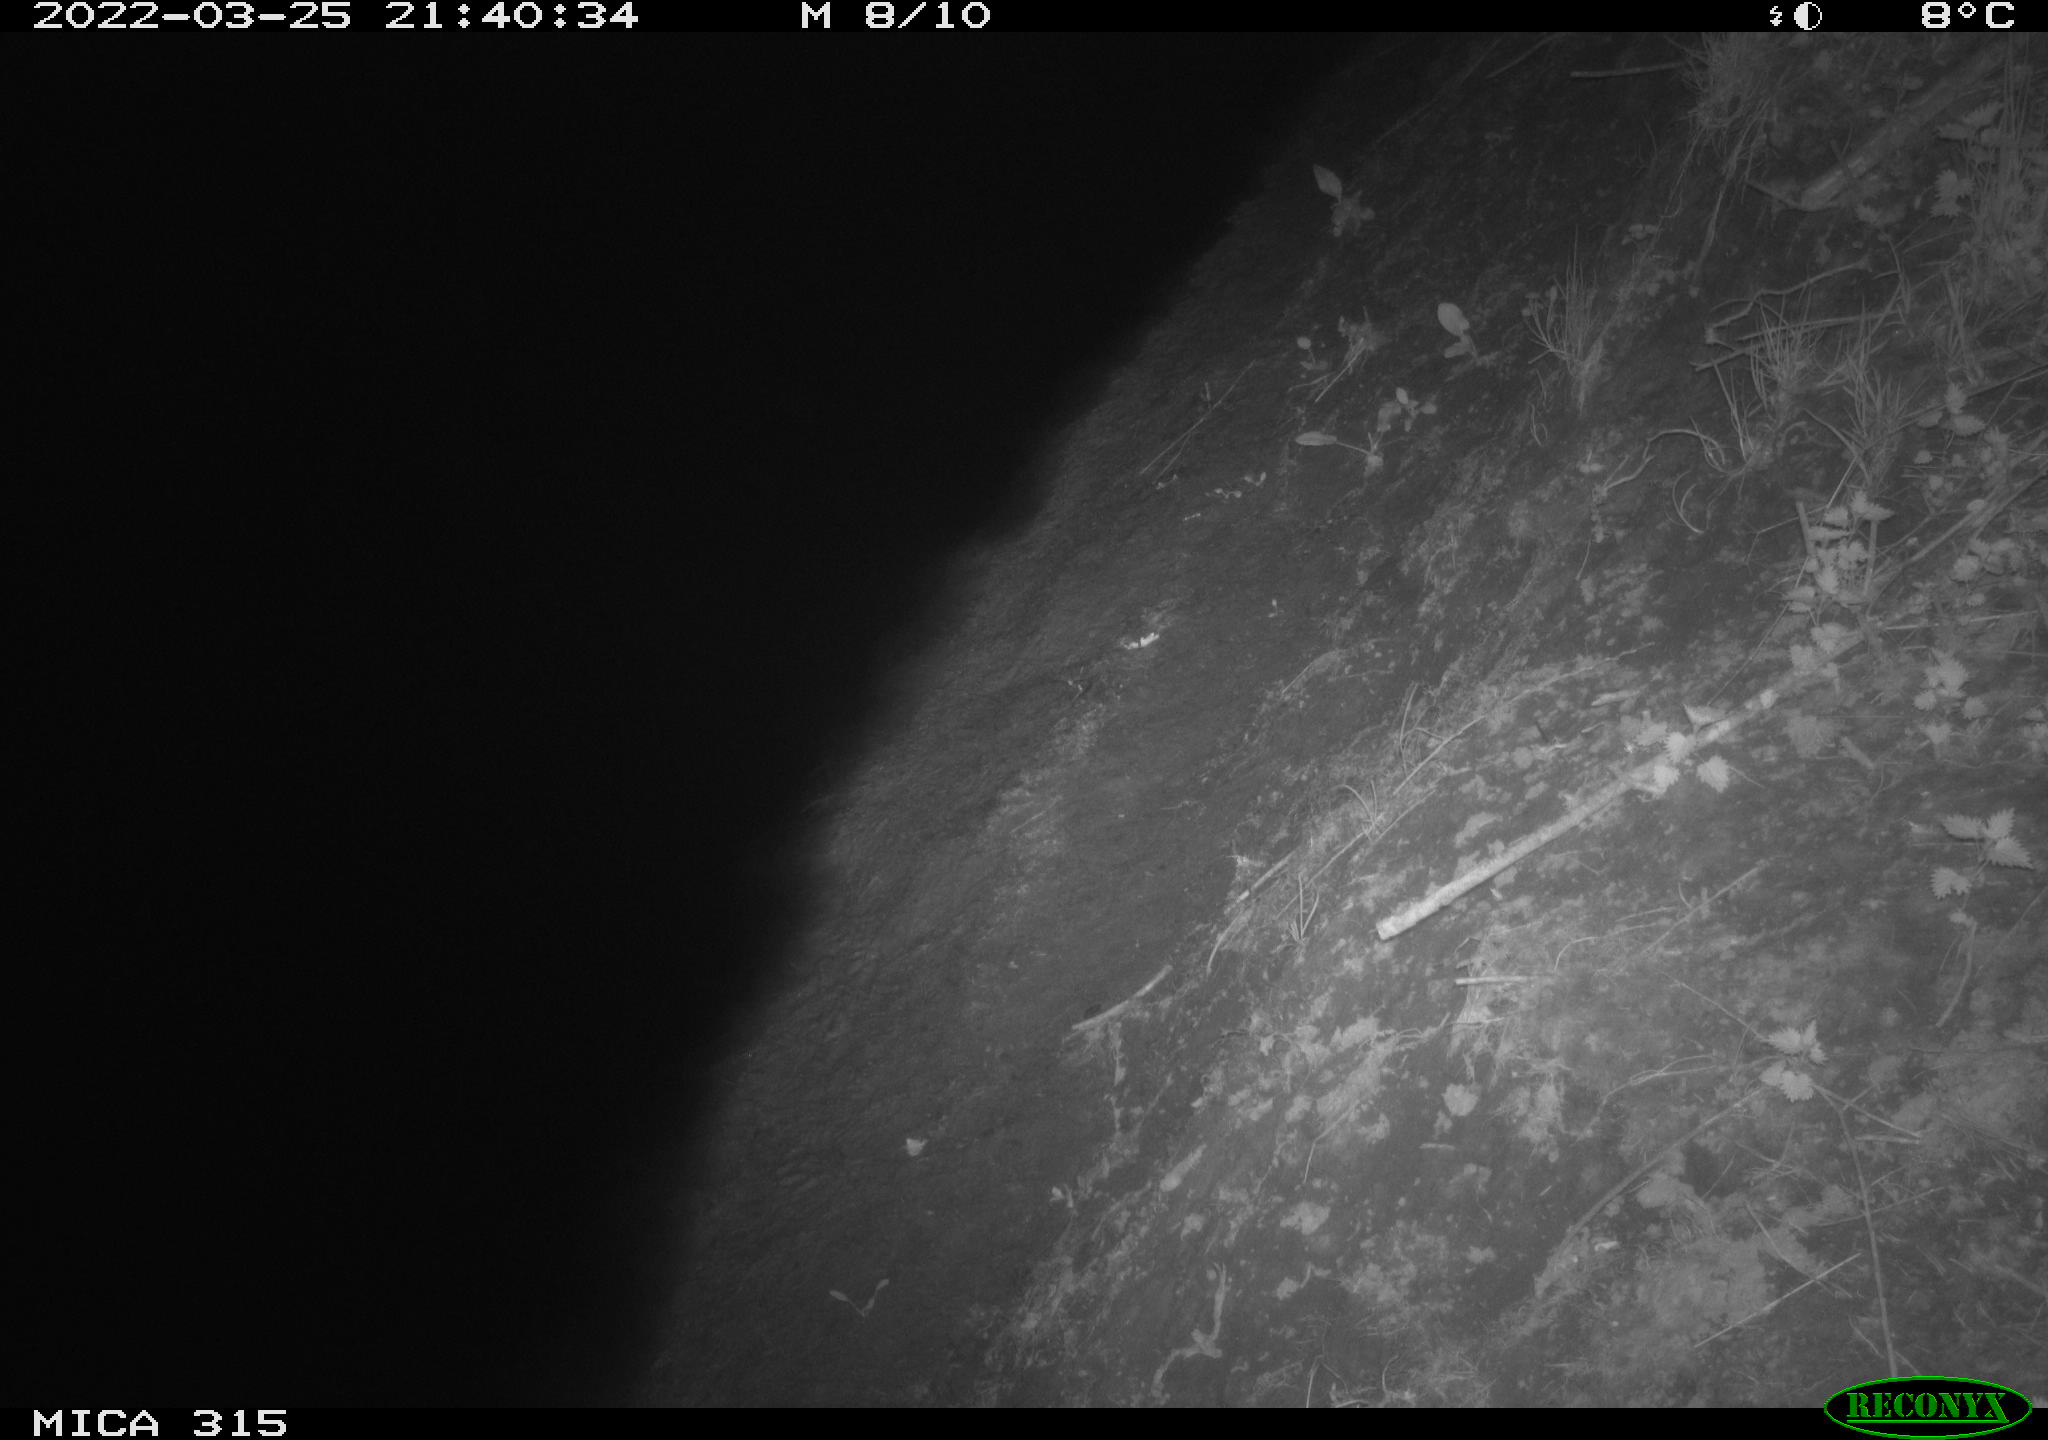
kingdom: Animalia
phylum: Chordata
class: Mammalia
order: Rodentia
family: Muridae
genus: Rattus
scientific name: Rattus norvegicus
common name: Brown rat
